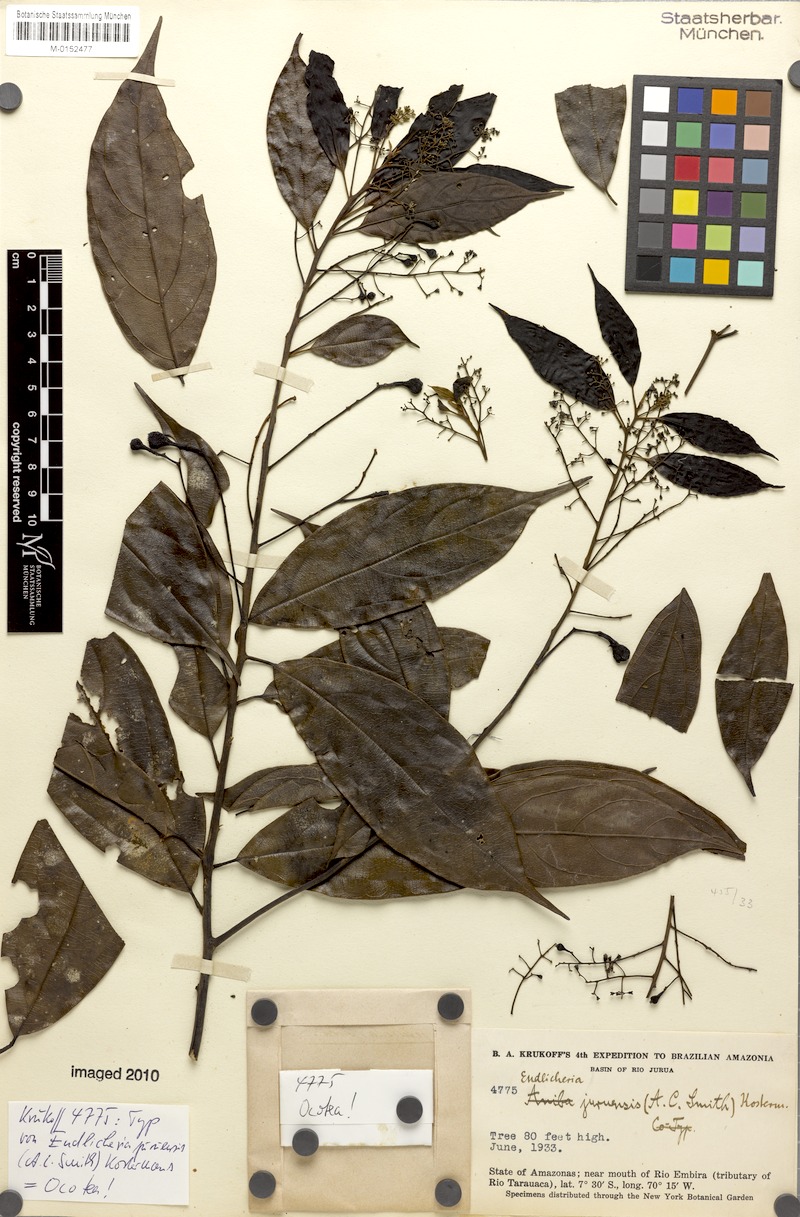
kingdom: Plantae
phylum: Tracheophyta
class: Magnoliopsida
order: Laurales
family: Lauraceae
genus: Rhodostemonodaphne
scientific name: Rhodostemonodaphne juruensis
